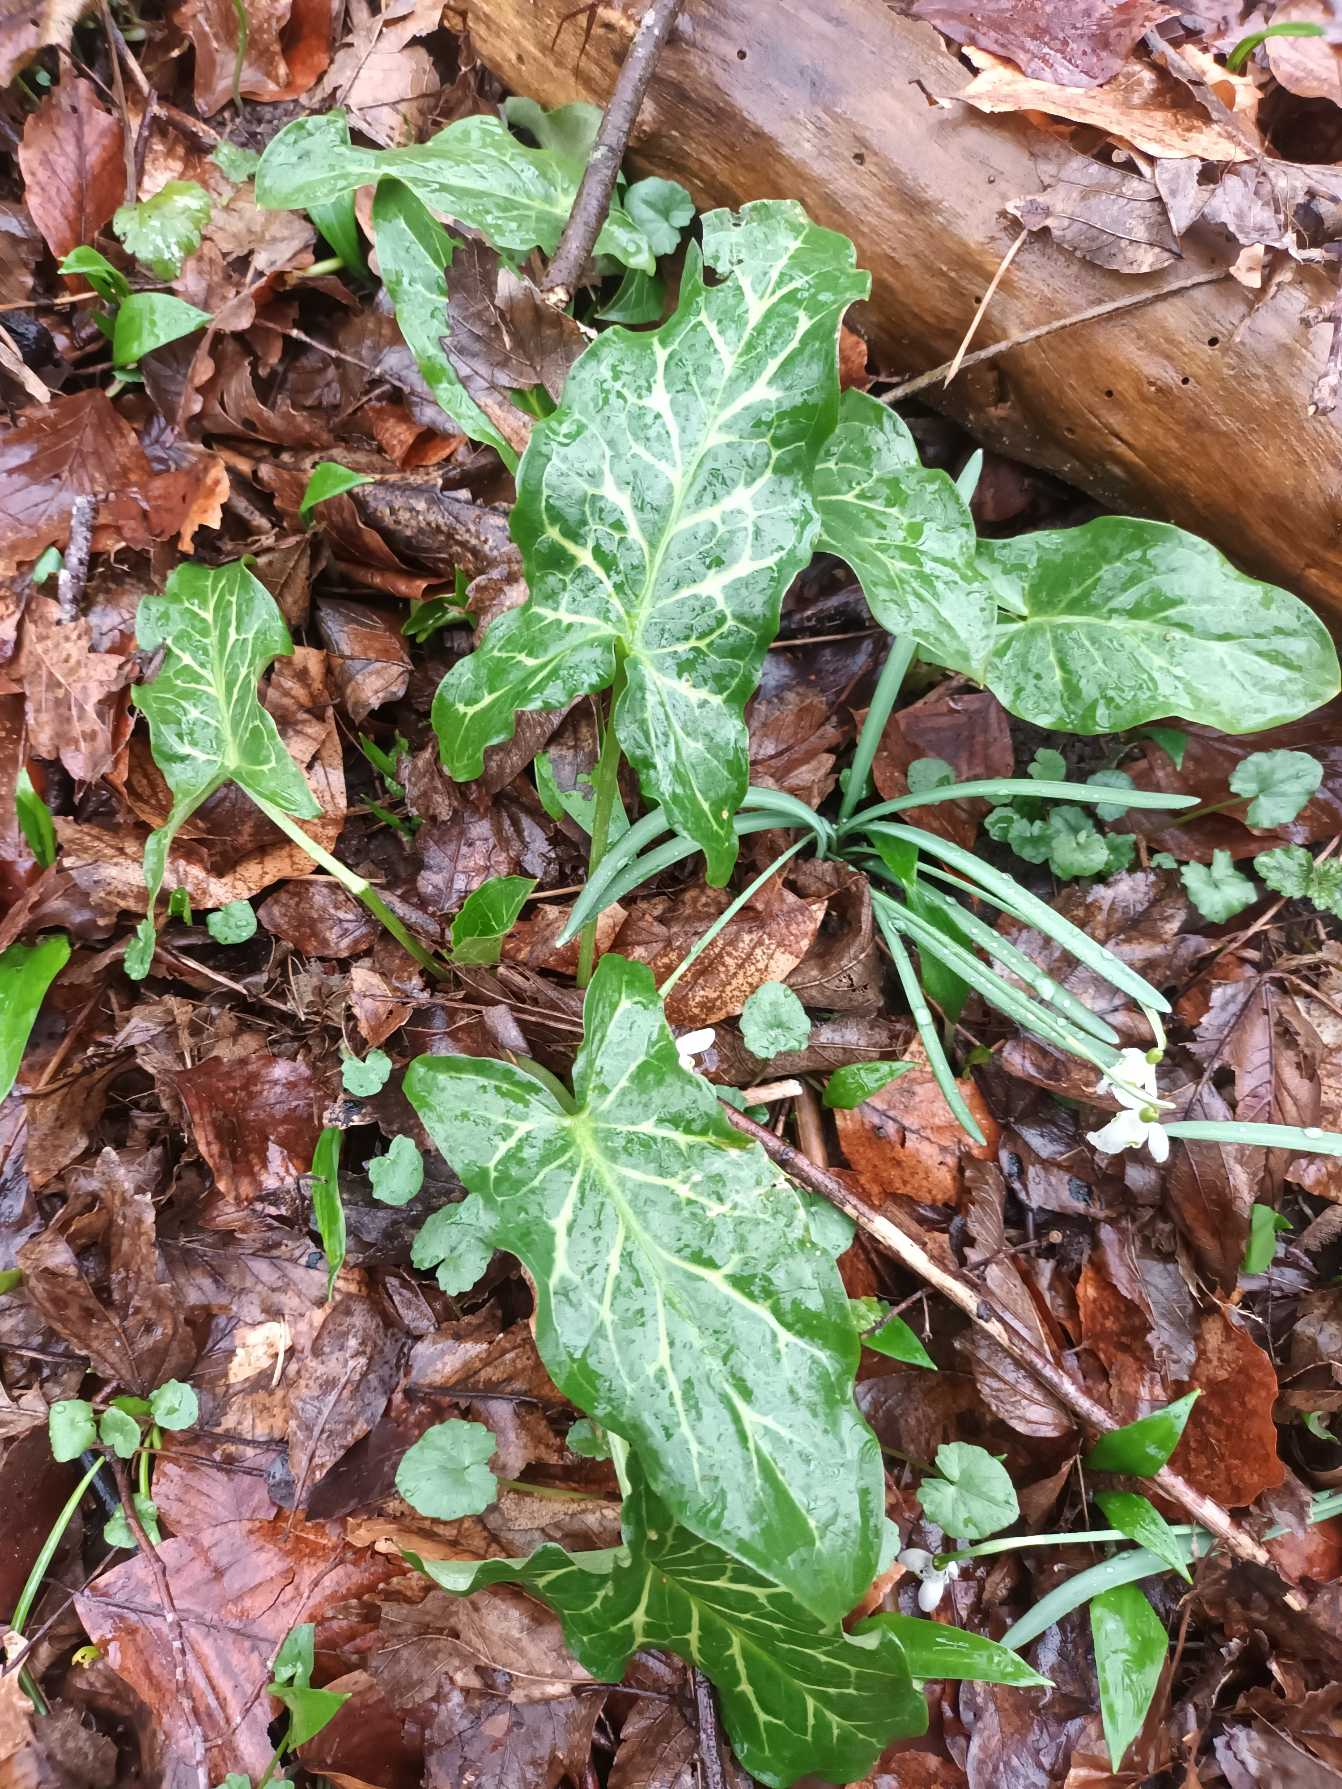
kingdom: Plantae
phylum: Tracheophyta
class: Liliopsida
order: Alismatales
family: Araceae
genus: Arum
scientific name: Arum italicum
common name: Italiensk arum
